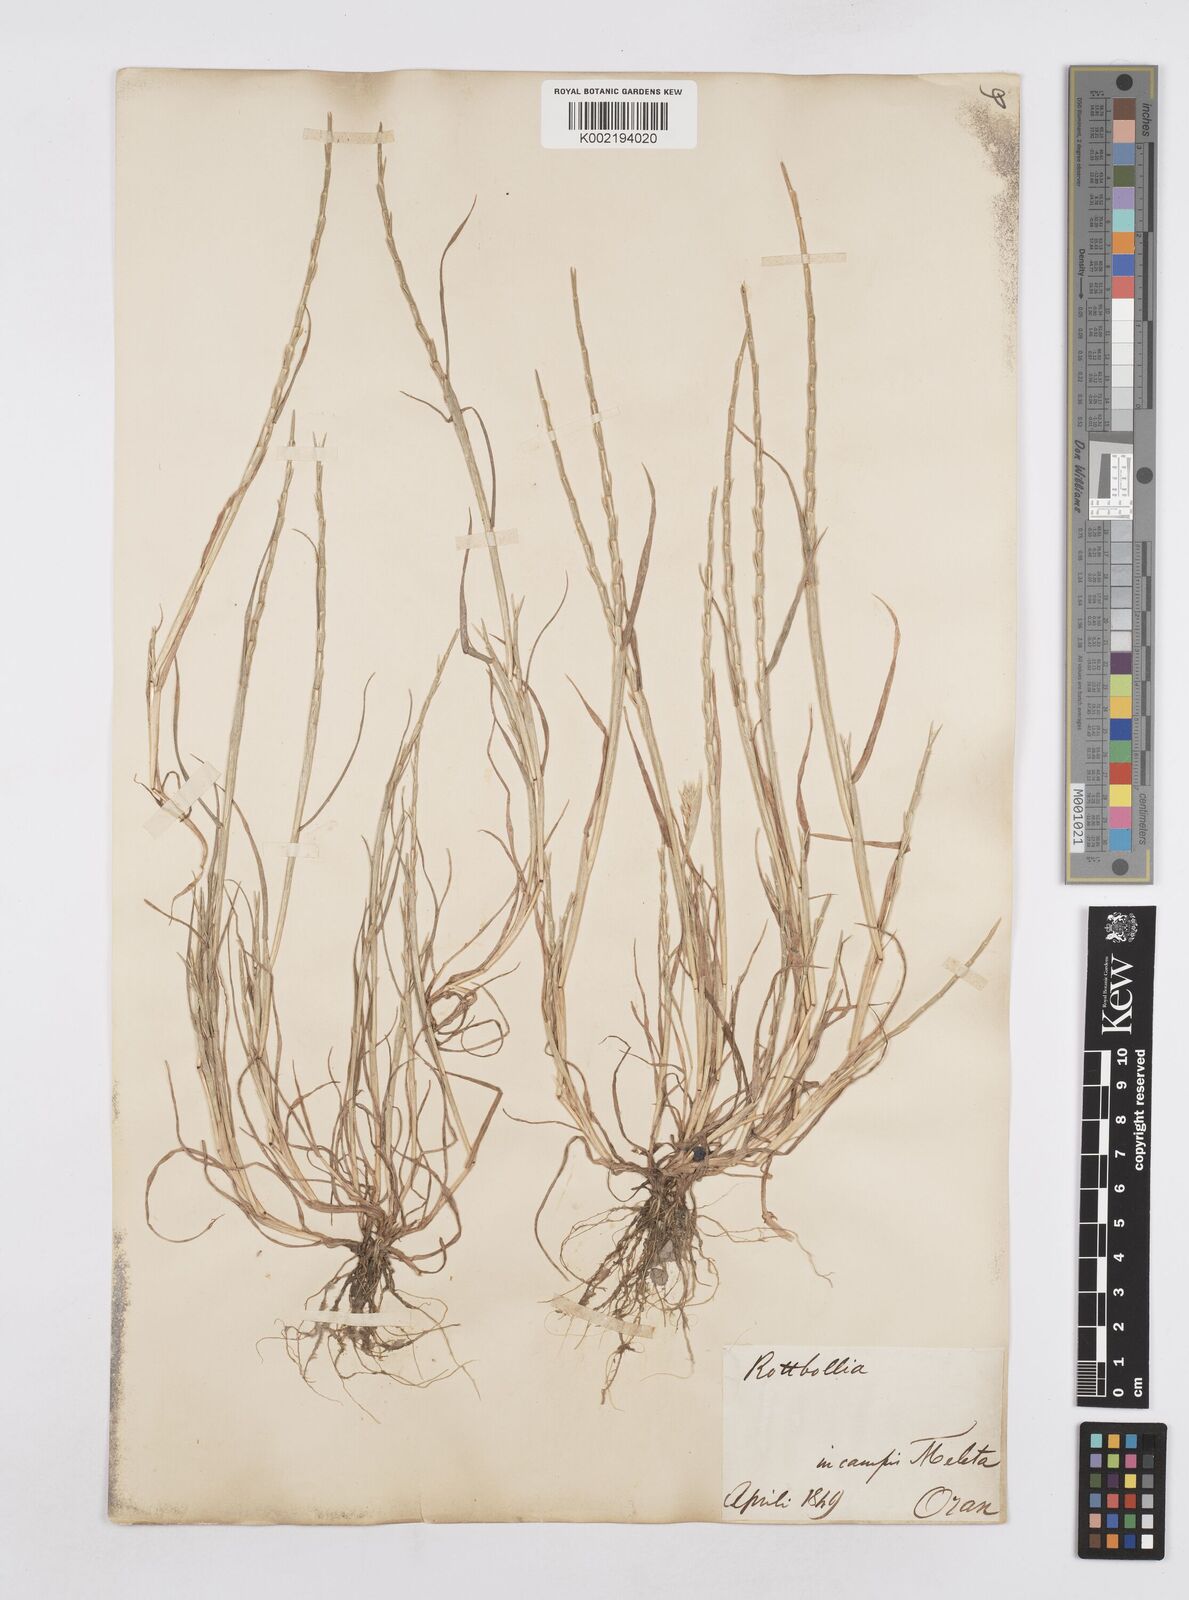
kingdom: Plantae
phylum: Tracheophyta
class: Liliopsida
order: Poales
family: Poaceae
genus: Parapholis
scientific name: Parapholis incurva
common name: Curved sicklegrass
